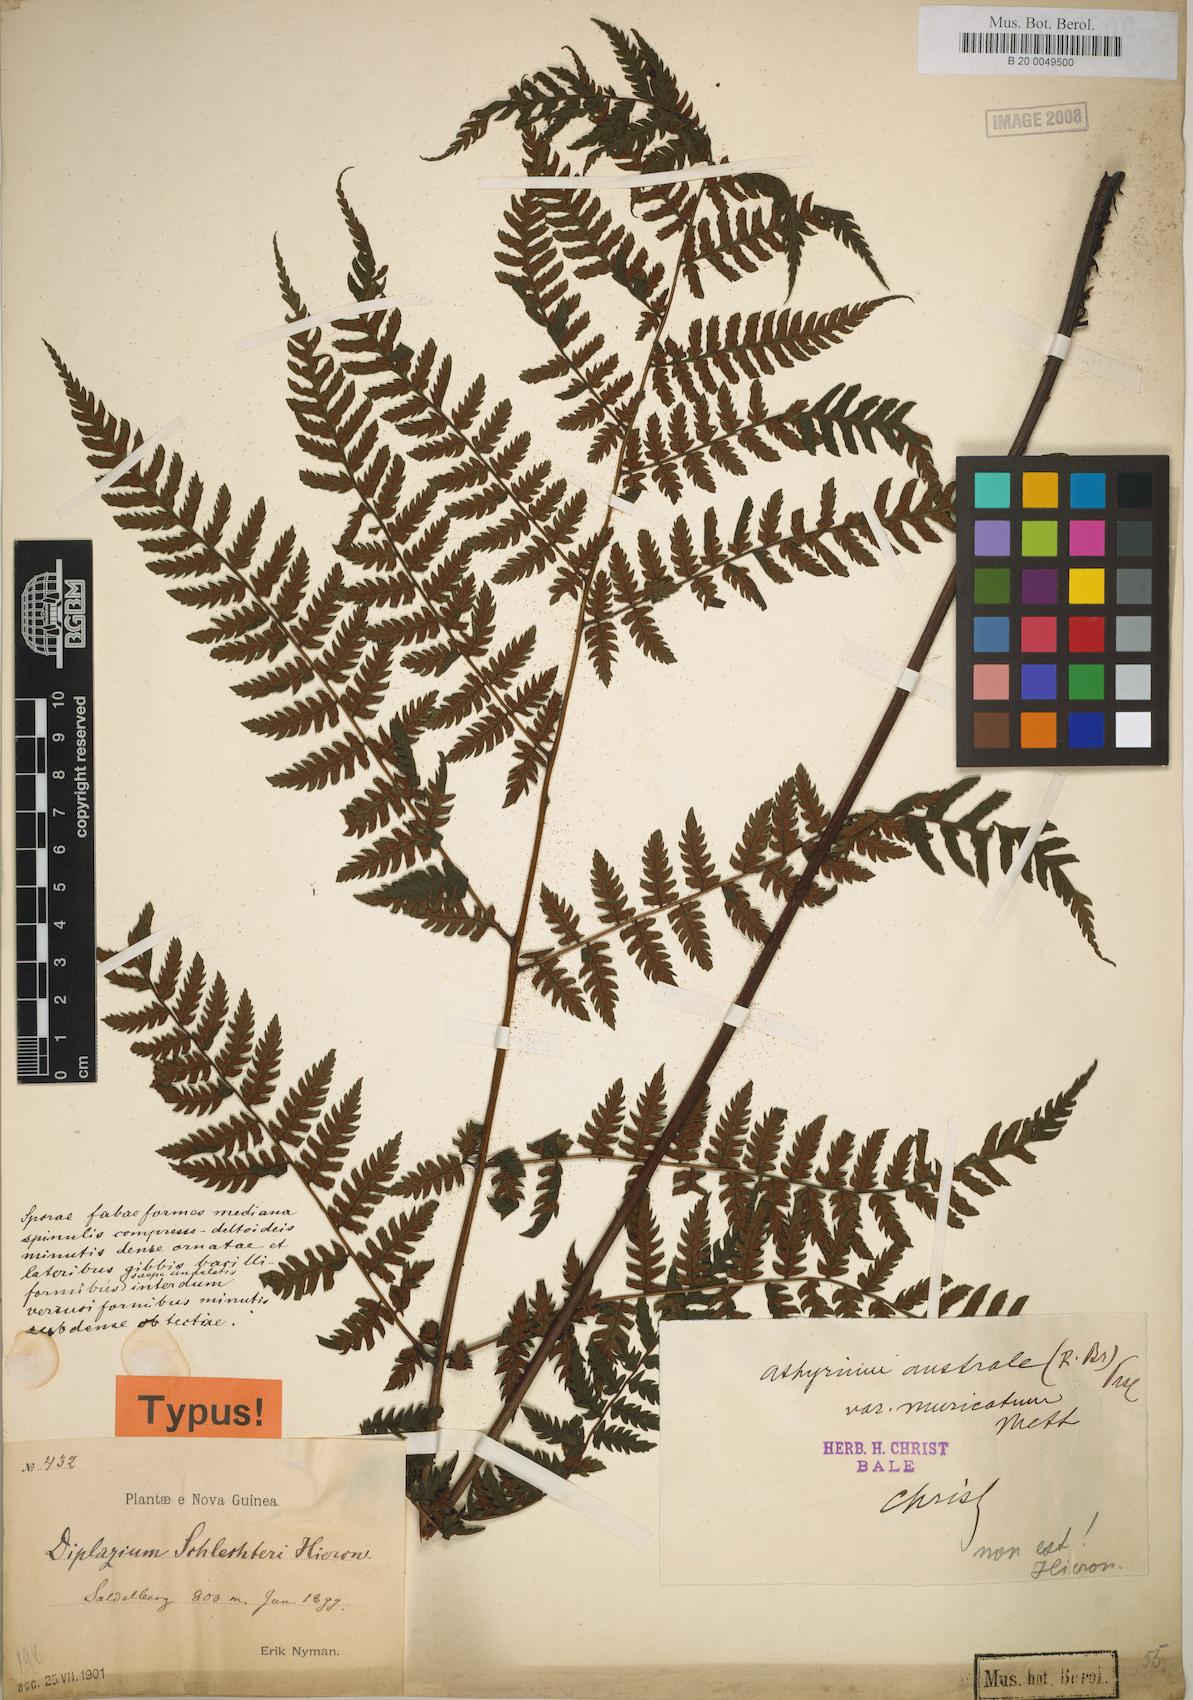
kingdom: Plantae
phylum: Tracheophyta
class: Polypodiopsida
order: Polypodiales
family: Athyriaceae
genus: Diplazium
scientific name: Diplazium schlechteri
